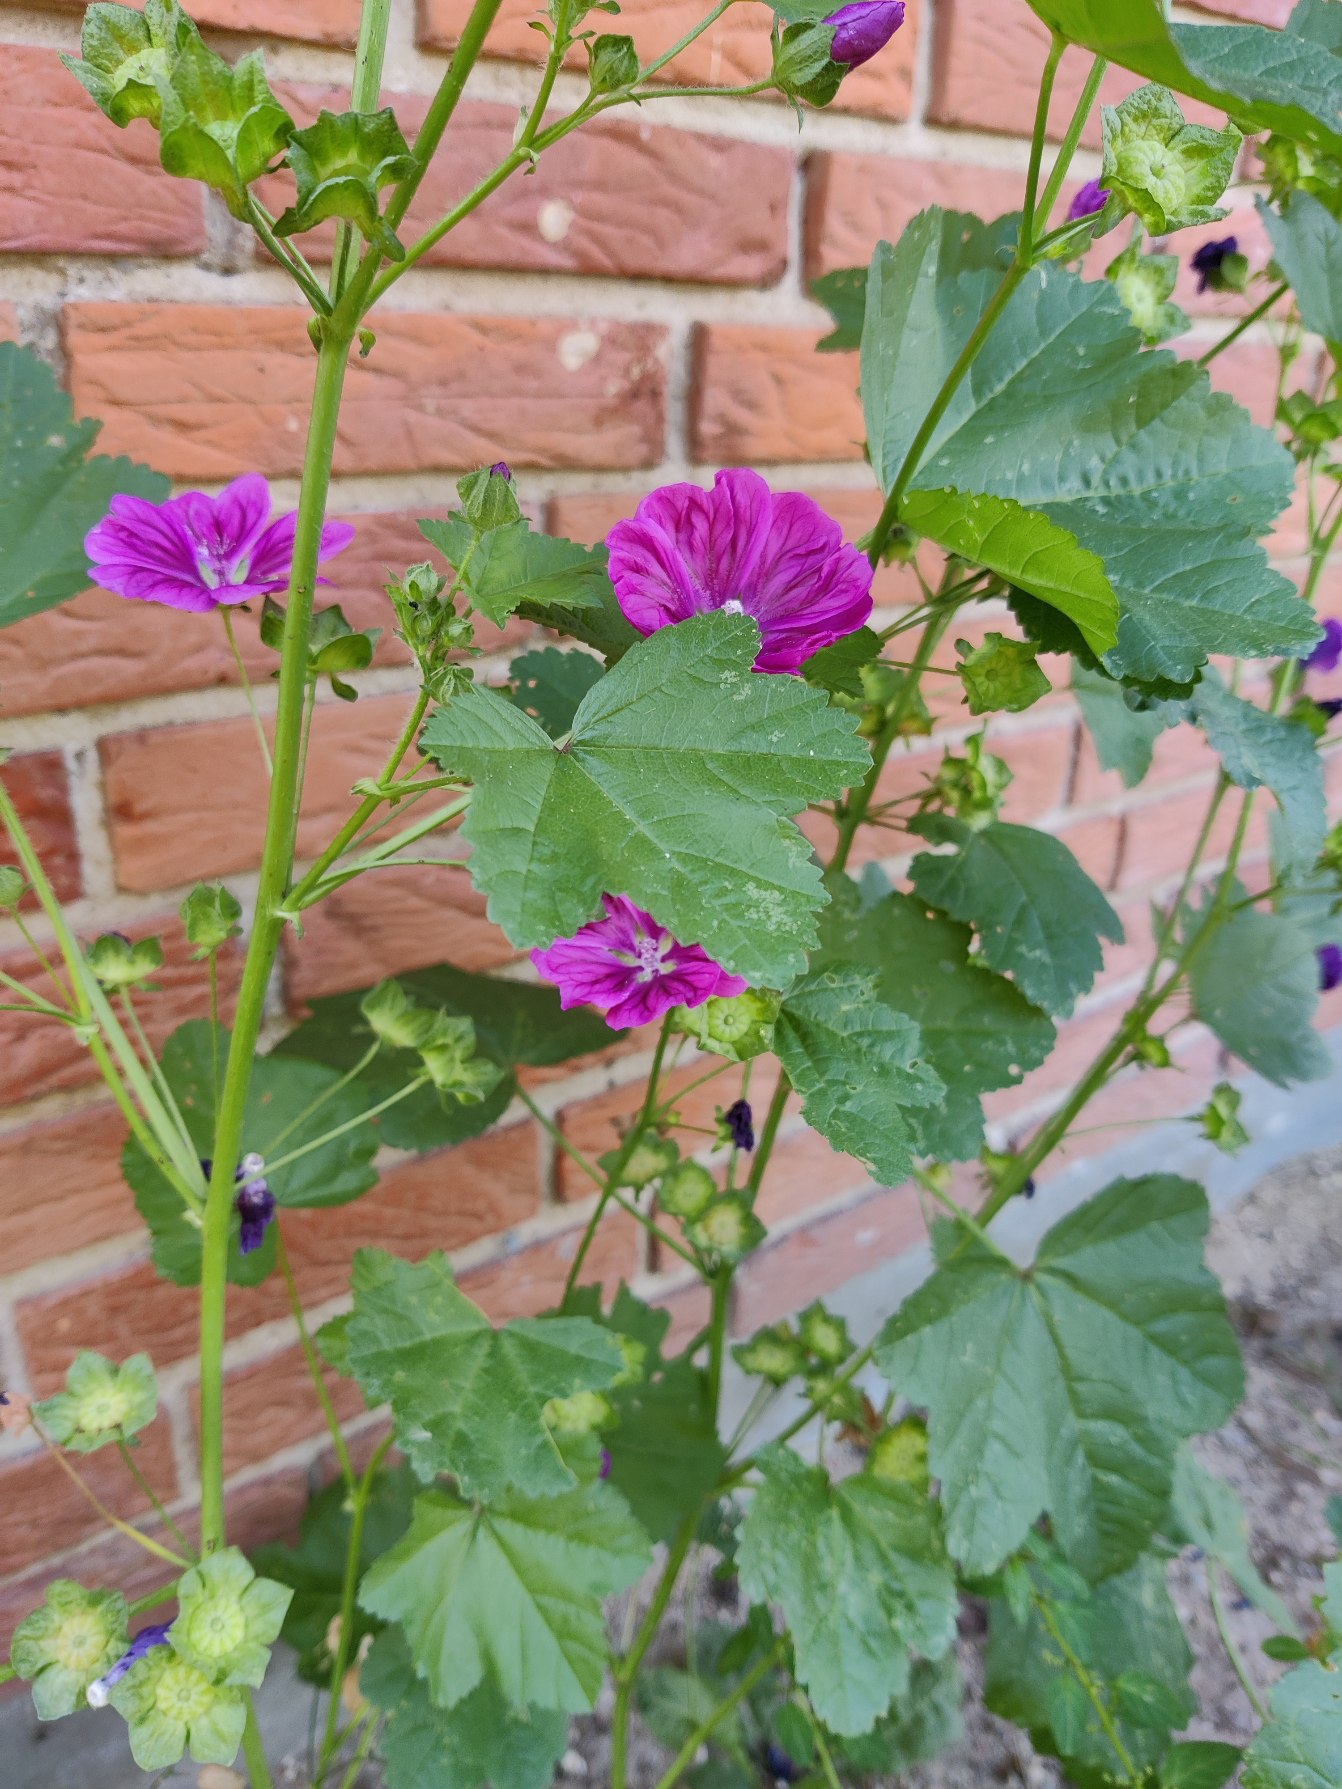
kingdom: Plantae
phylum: Tracheophyta
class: Magnoliopsida
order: Malvales
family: Malvaceae
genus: Malva
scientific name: Malva sylvestris
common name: Stor katost
